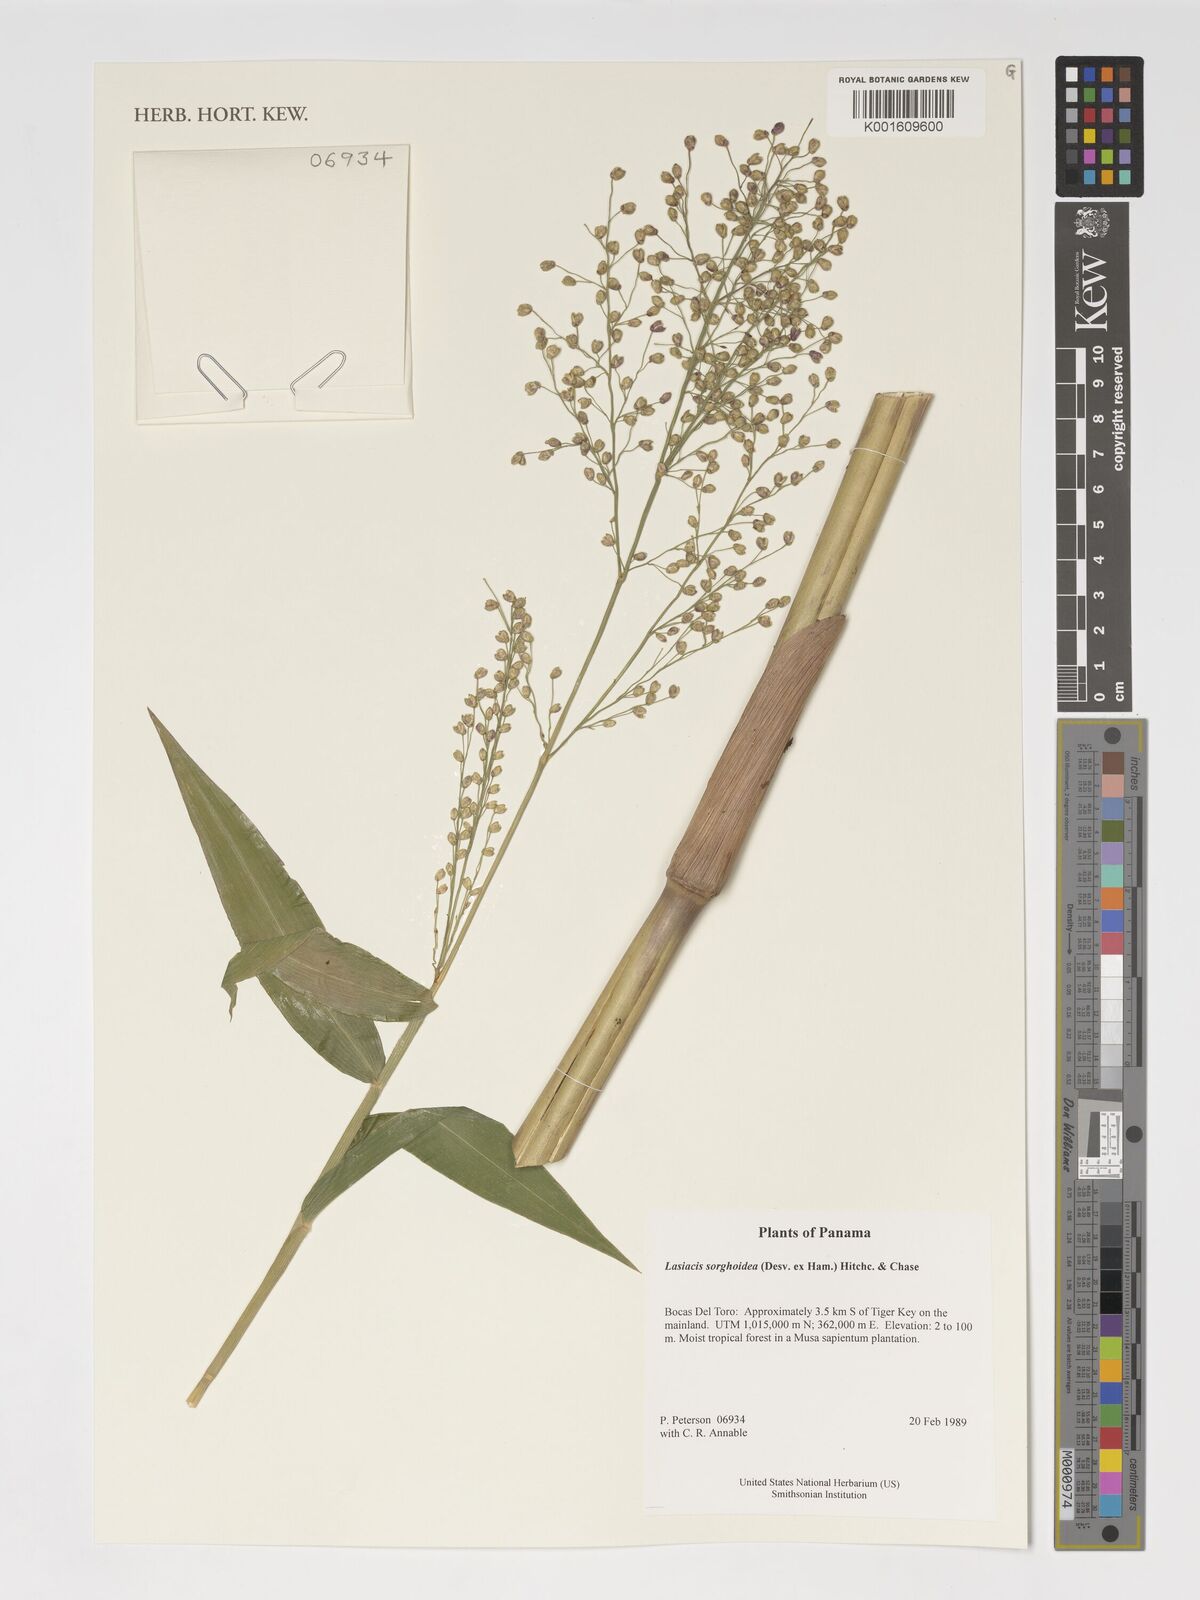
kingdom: Plantae
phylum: Tracheophyta
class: Liliopsida
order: Poales
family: Poaceae
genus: Lasiacis
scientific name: Lasiacis maculata
